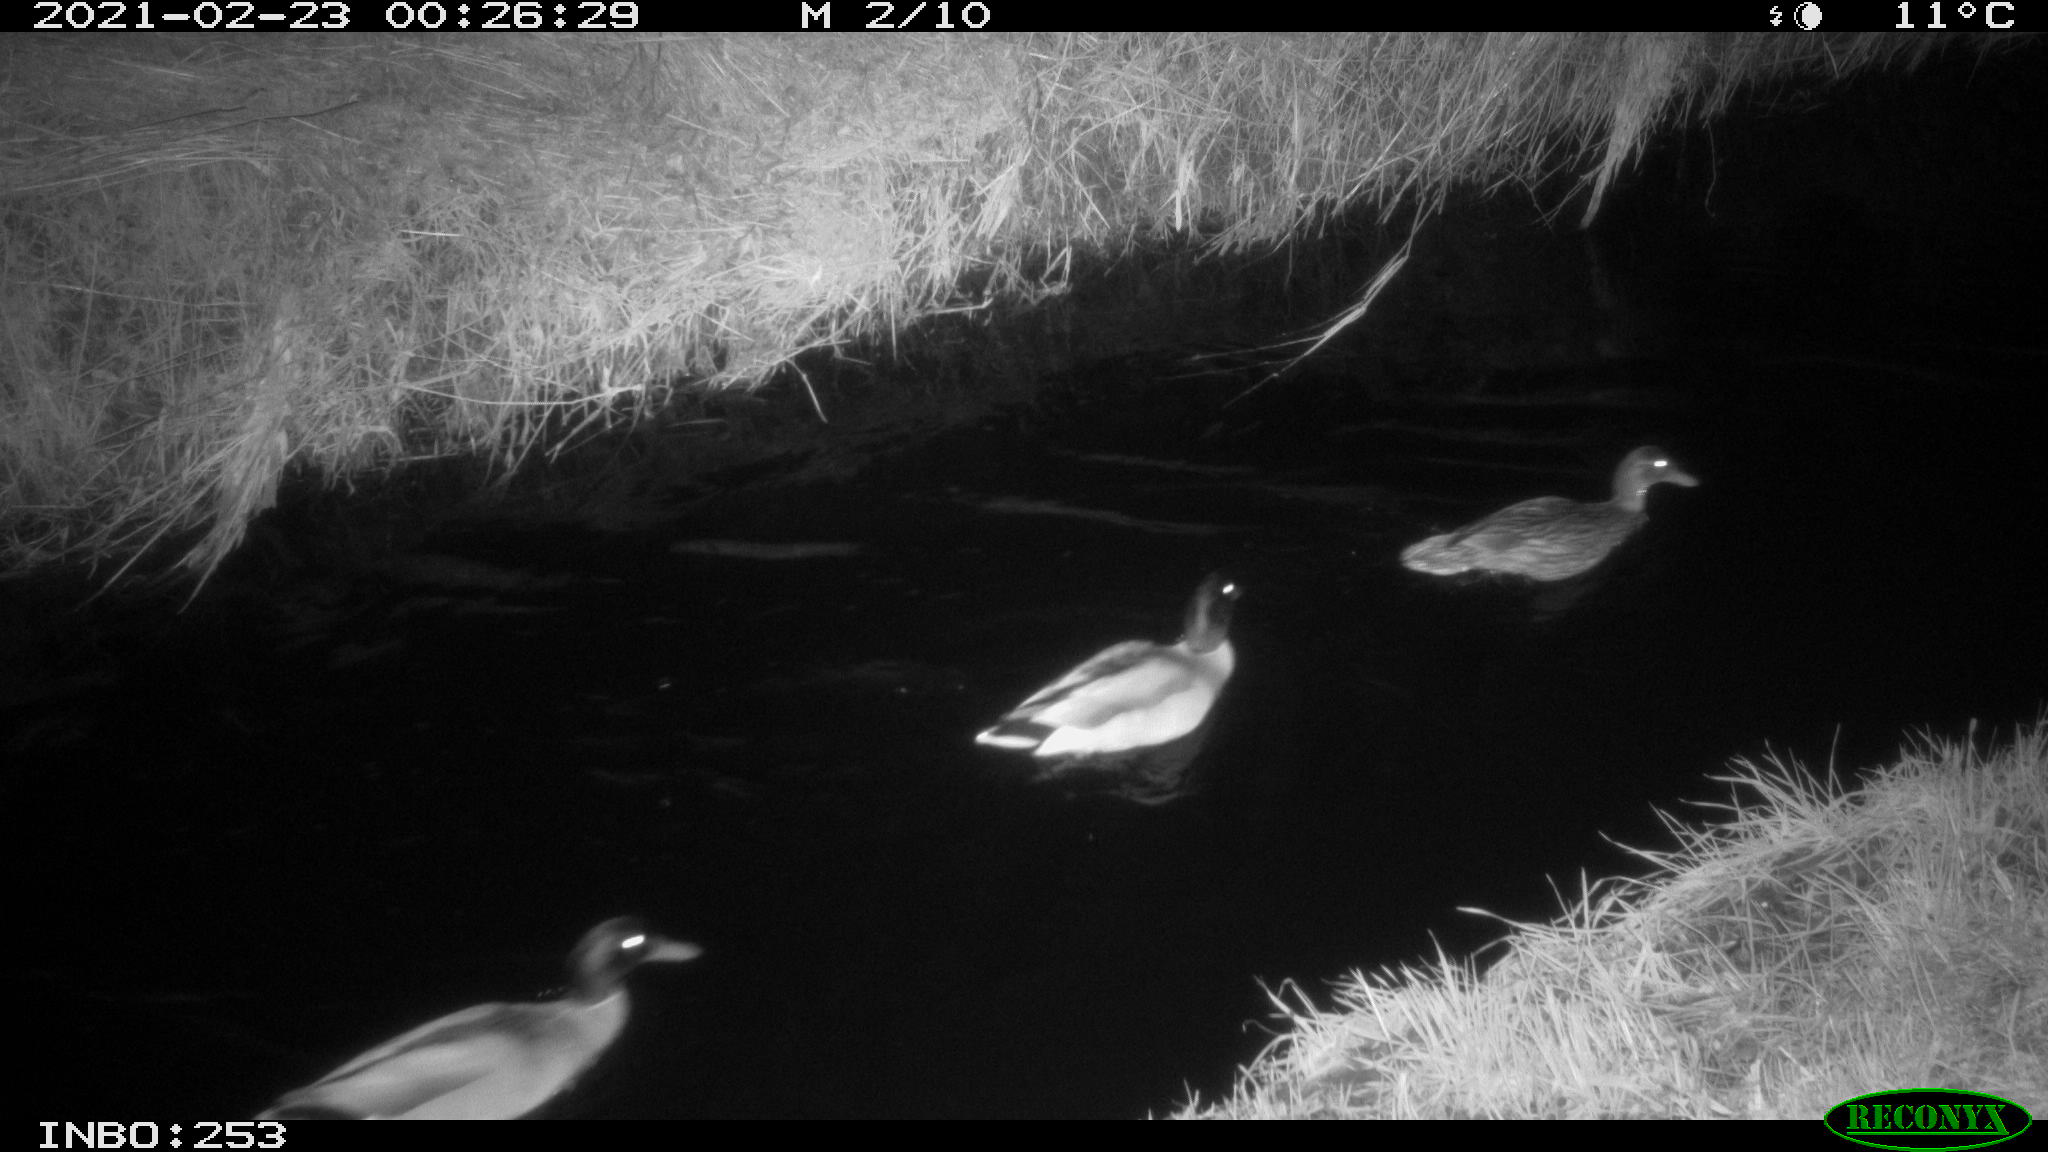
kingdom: Animalia
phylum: Chordata
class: Aves
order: Anseriformes
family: Anatidae
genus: Anas
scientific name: Anas platyrhynchos
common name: Mallard
